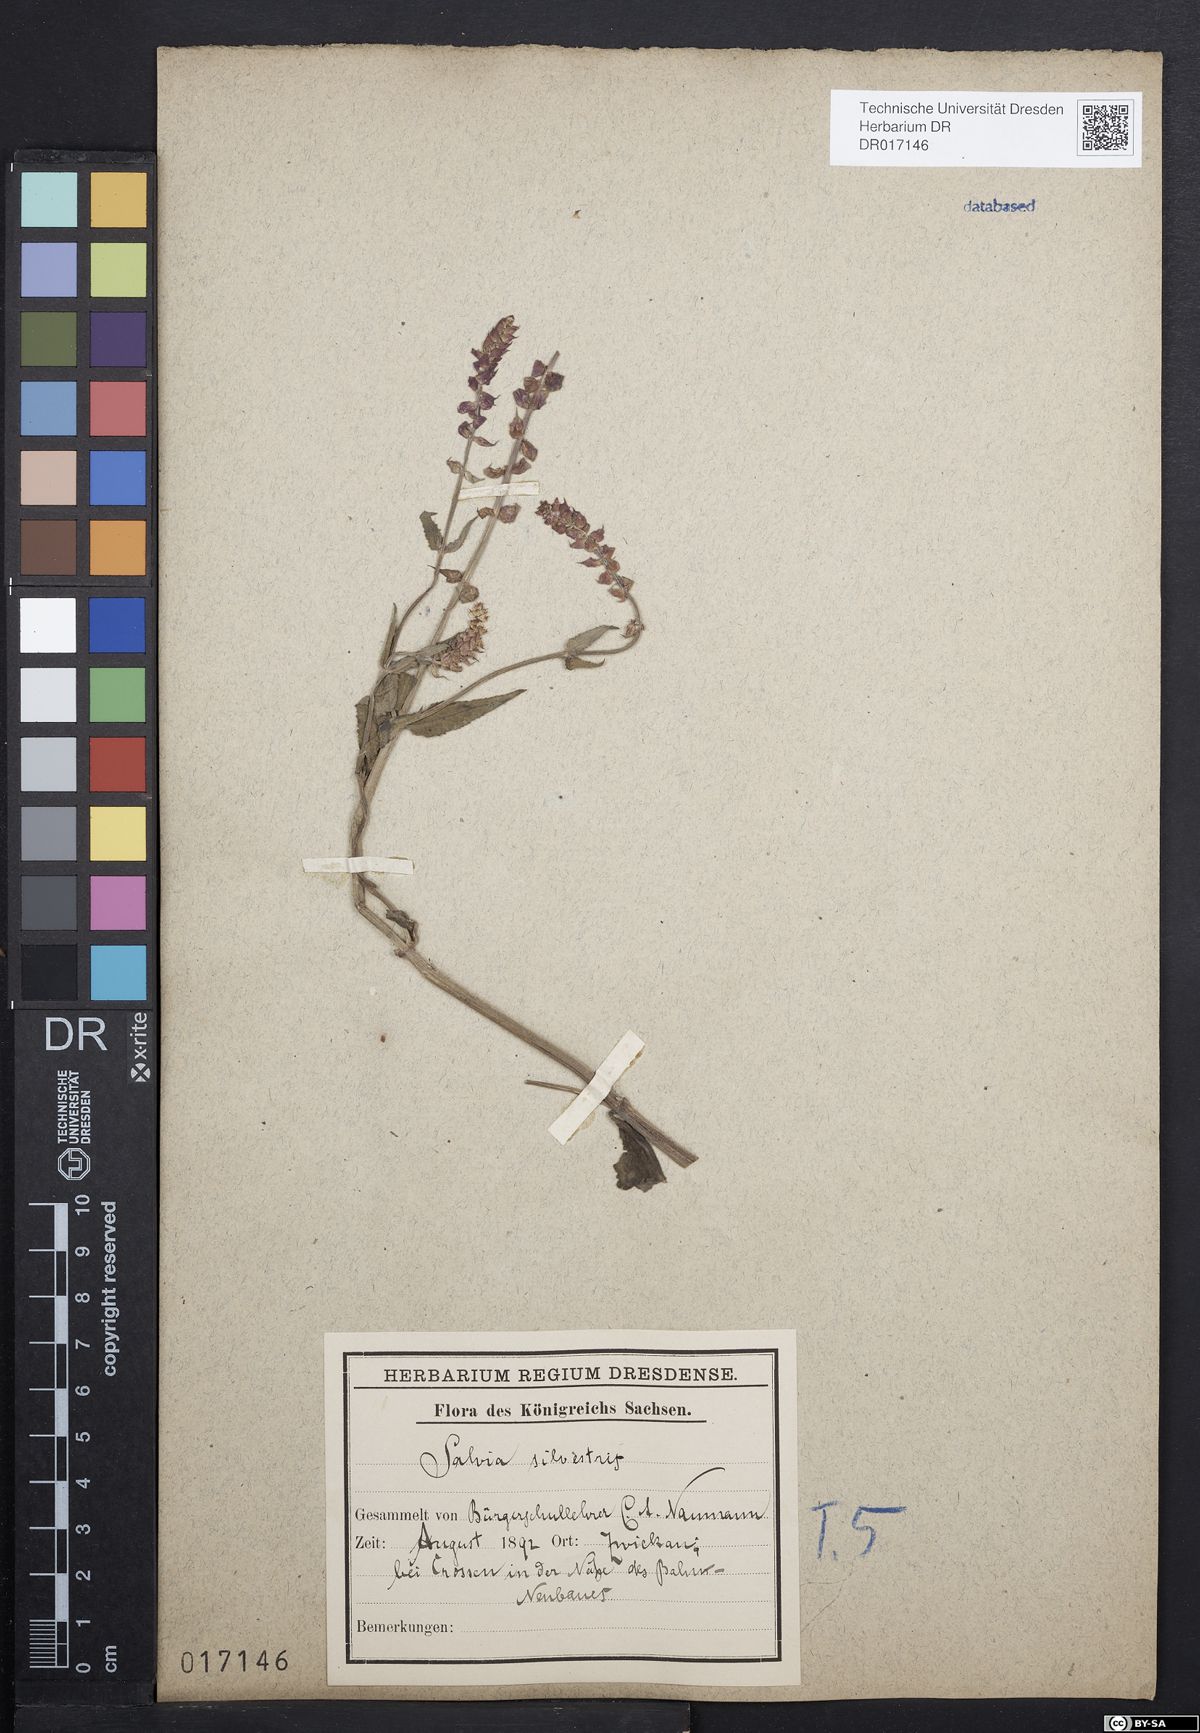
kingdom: Plantae
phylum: Tracheophyta
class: Magnoliopsida
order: Lamiales
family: Lamiaceae
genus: Salvia
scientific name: Salvia nemorosa
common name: Balkan clary
